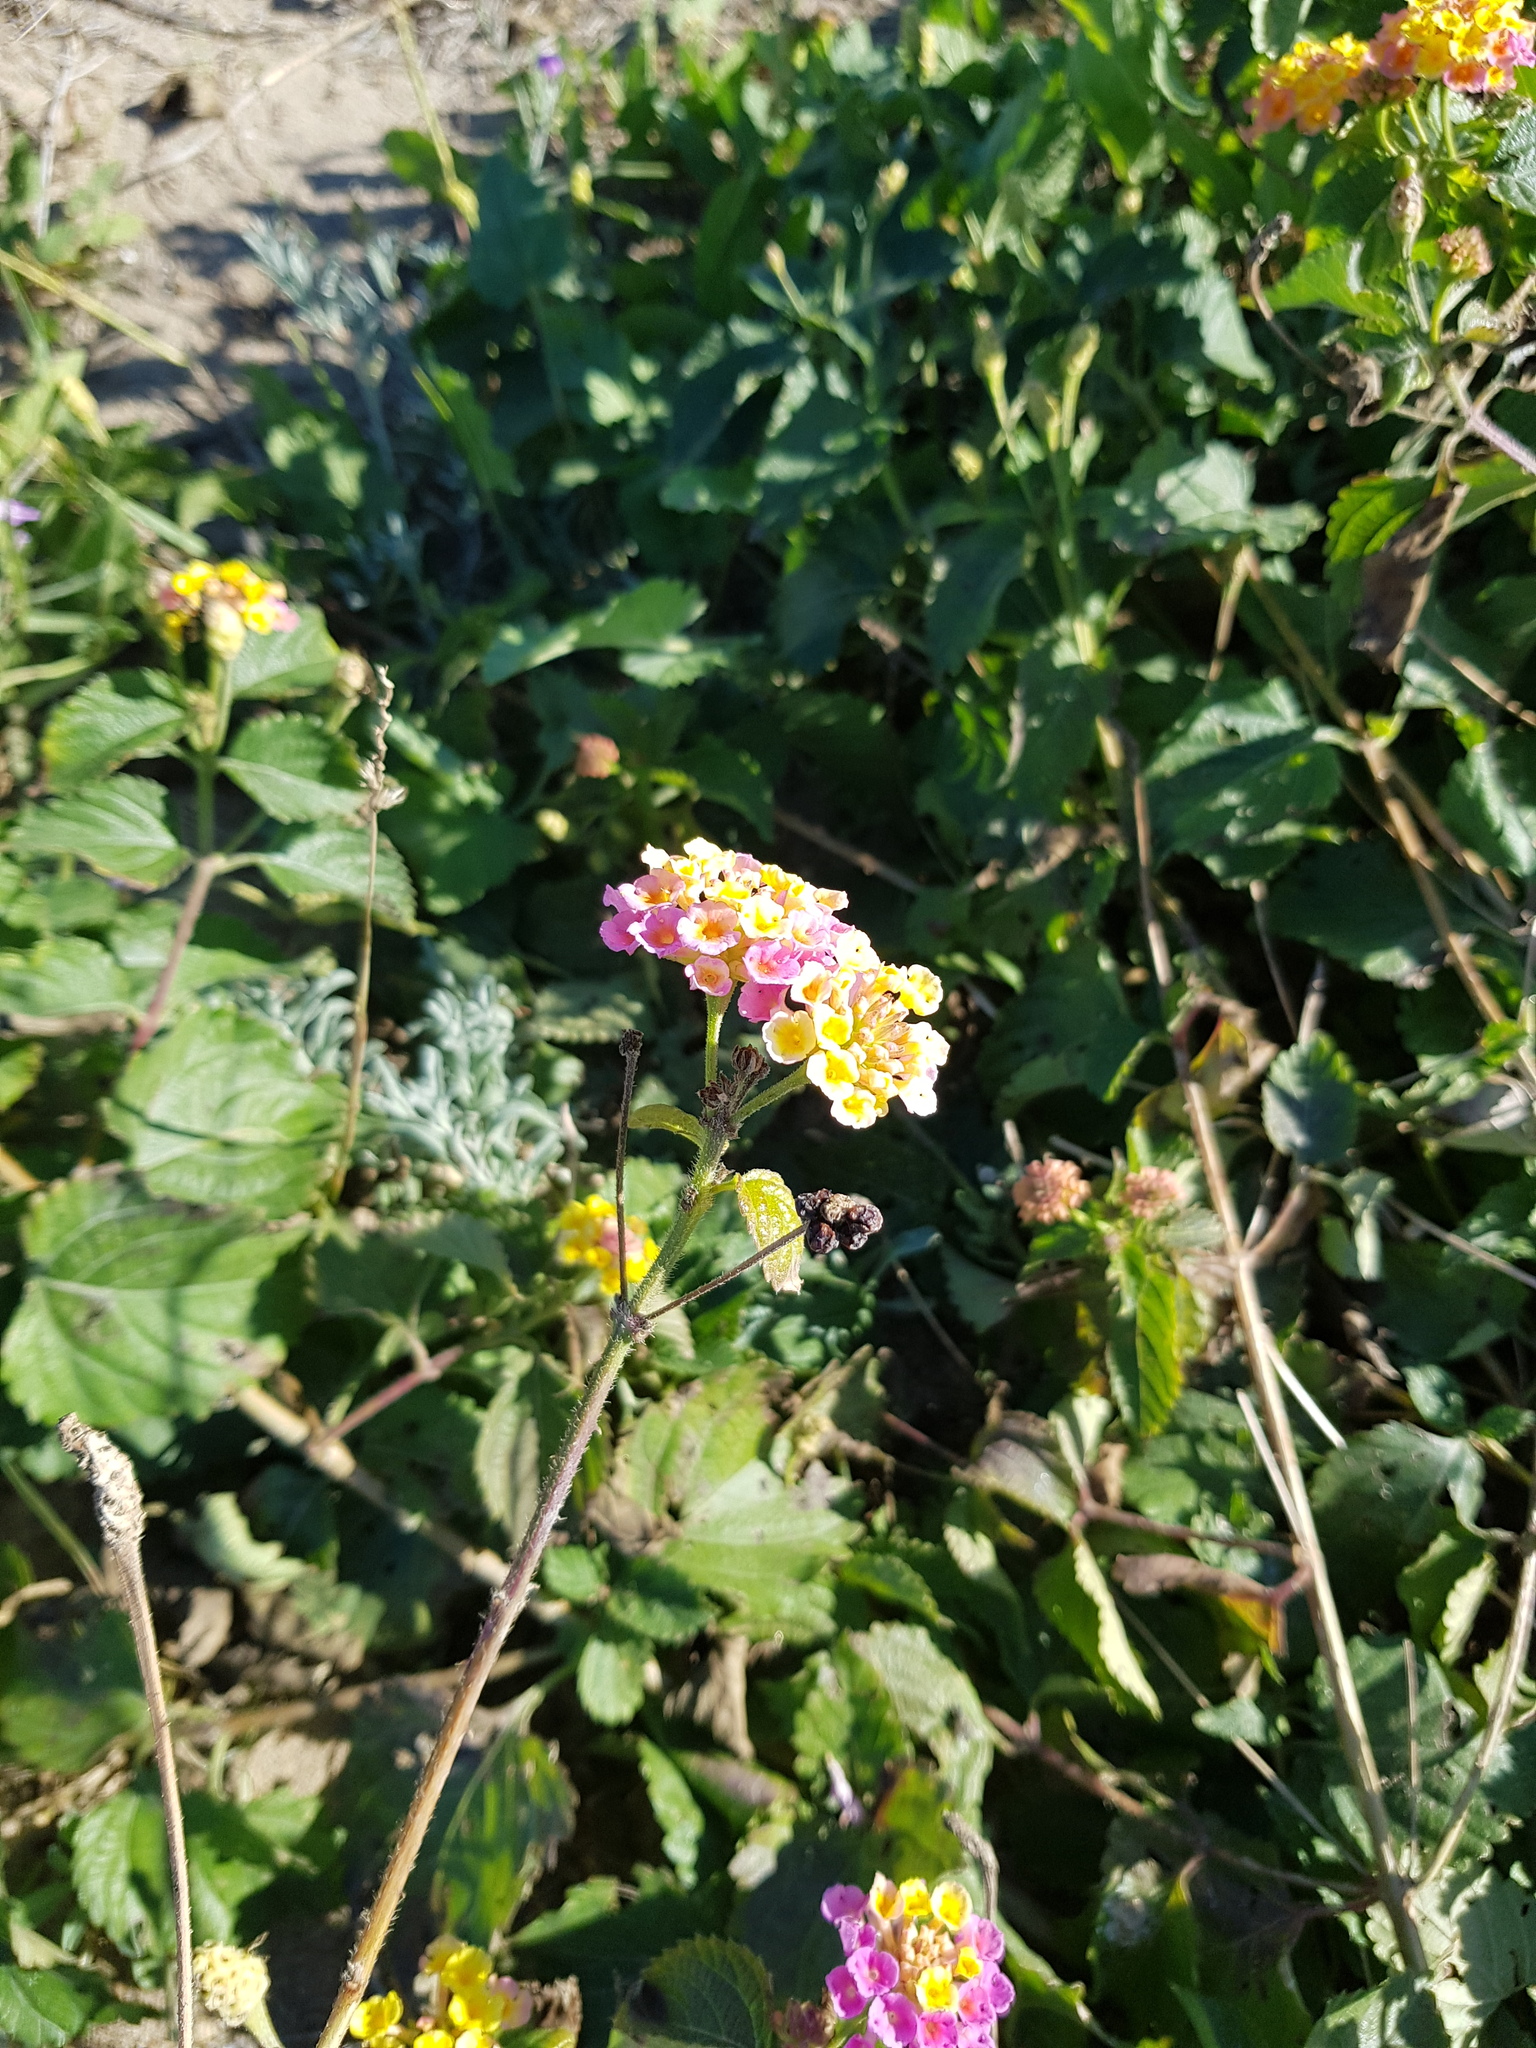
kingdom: Plantae
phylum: Tracheophyta
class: Magnoliopsida
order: Lamiales
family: Verbenaceae
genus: Lantana
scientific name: Lantana camara
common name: Lantana
